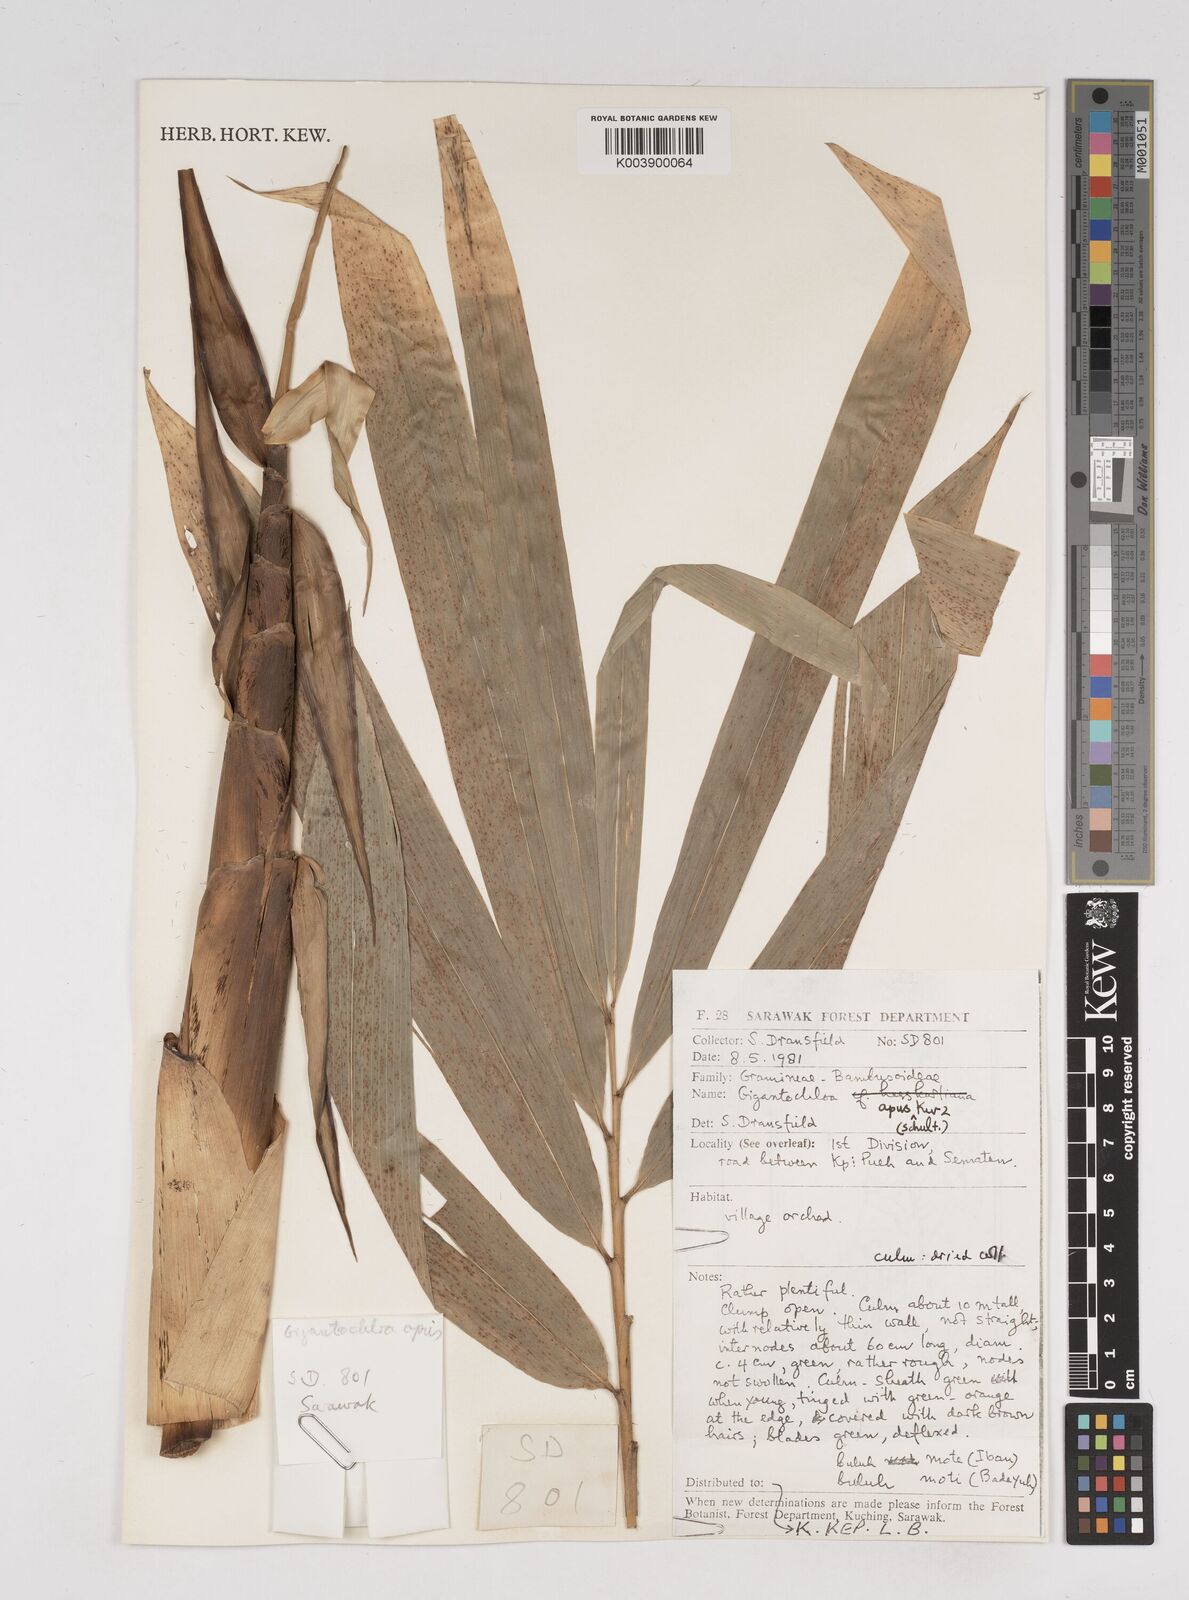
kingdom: Plantae
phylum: Tracheophyta
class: Liliopsida
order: Poales
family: Poaceae
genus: Gigantochloa
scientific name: Gigantochloa apus
